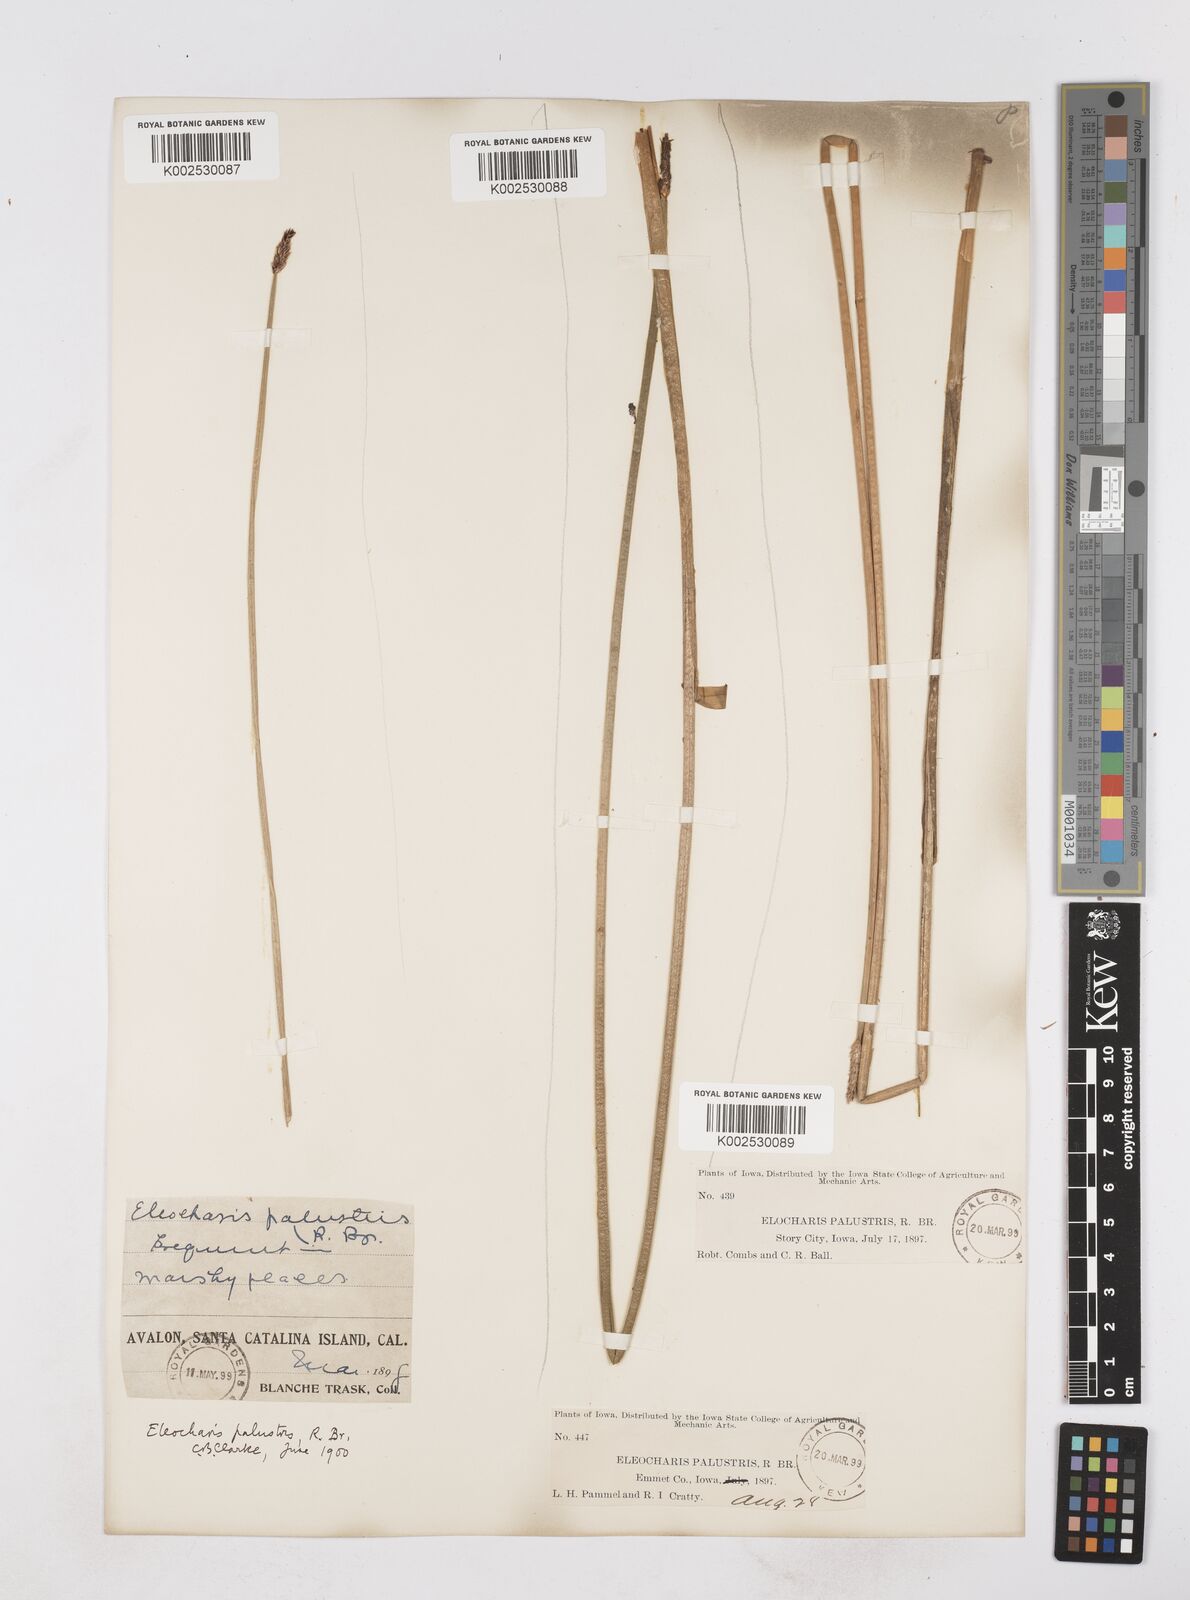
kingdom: Plantae
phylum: Tracheophyta
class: Liliopsida
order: Poales
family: Cyperaceae
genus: Eleocharis
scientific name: Eleocharis palustris
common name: Common spike-rush
